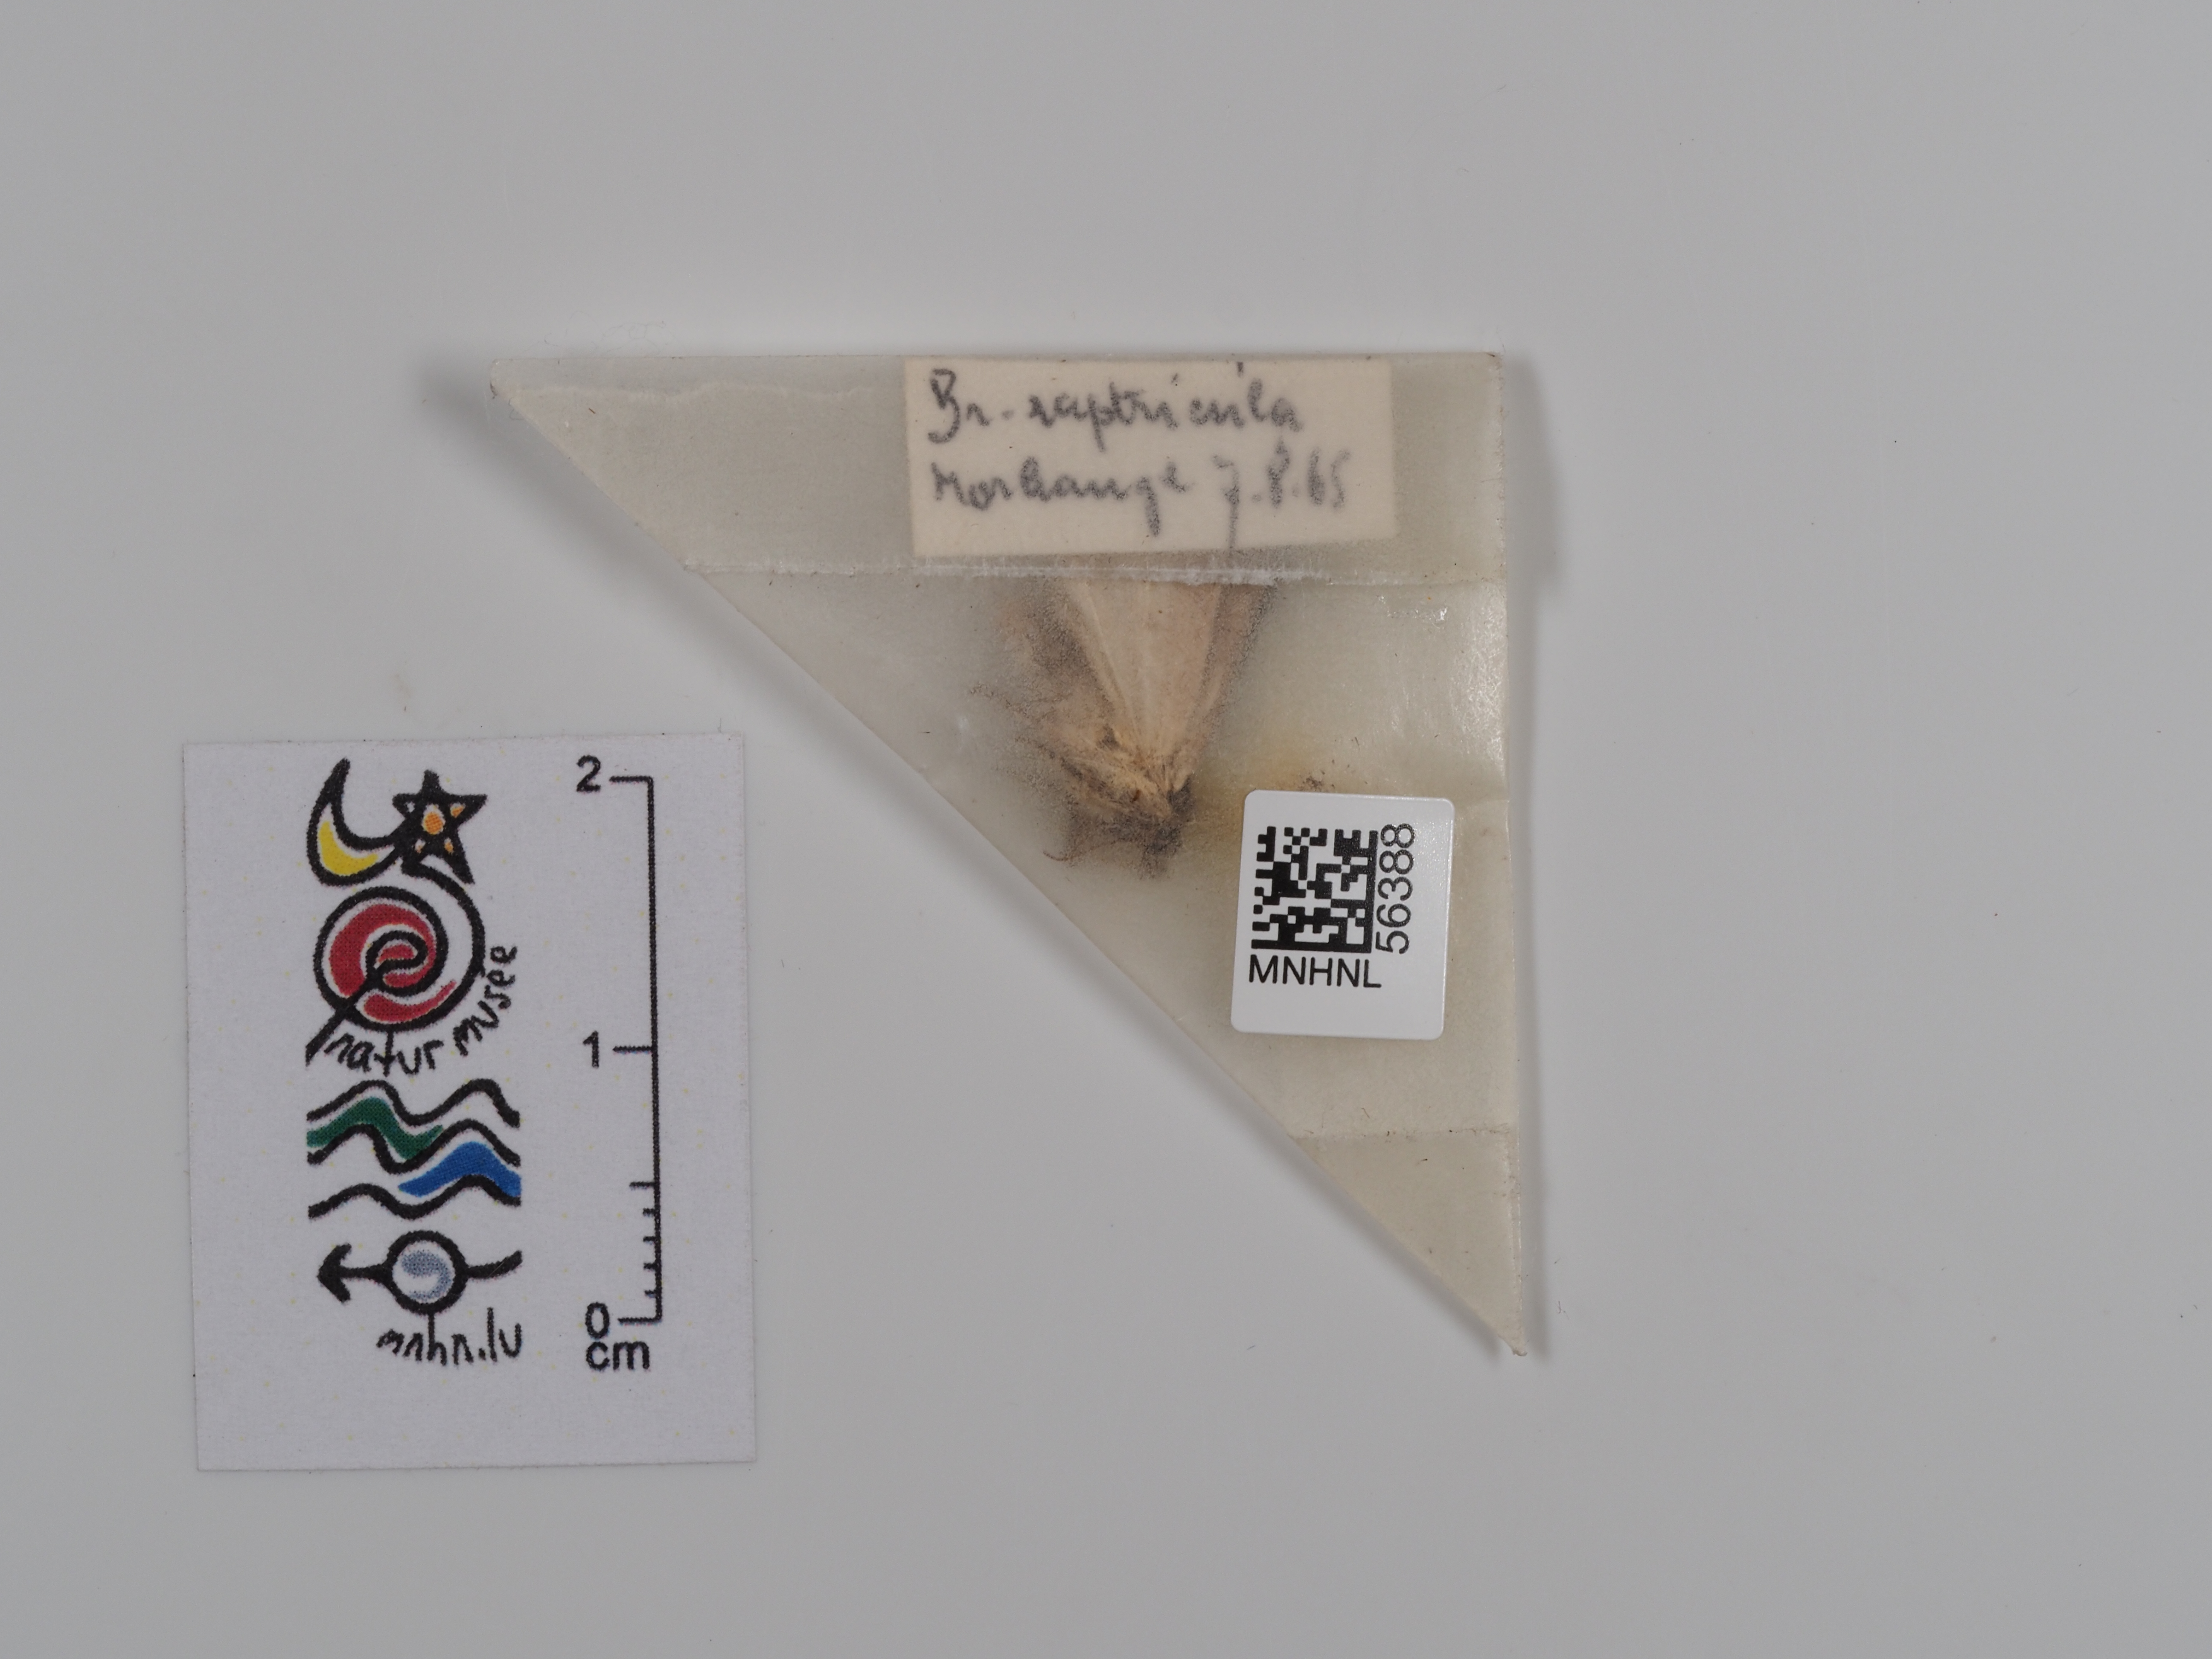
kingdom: Animalia
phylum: Arthropoda
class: Insecta
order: Lepidoptera
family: Noctuidae
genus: Bryophila
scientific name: Bryophila raptricula
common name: Marbled grey
